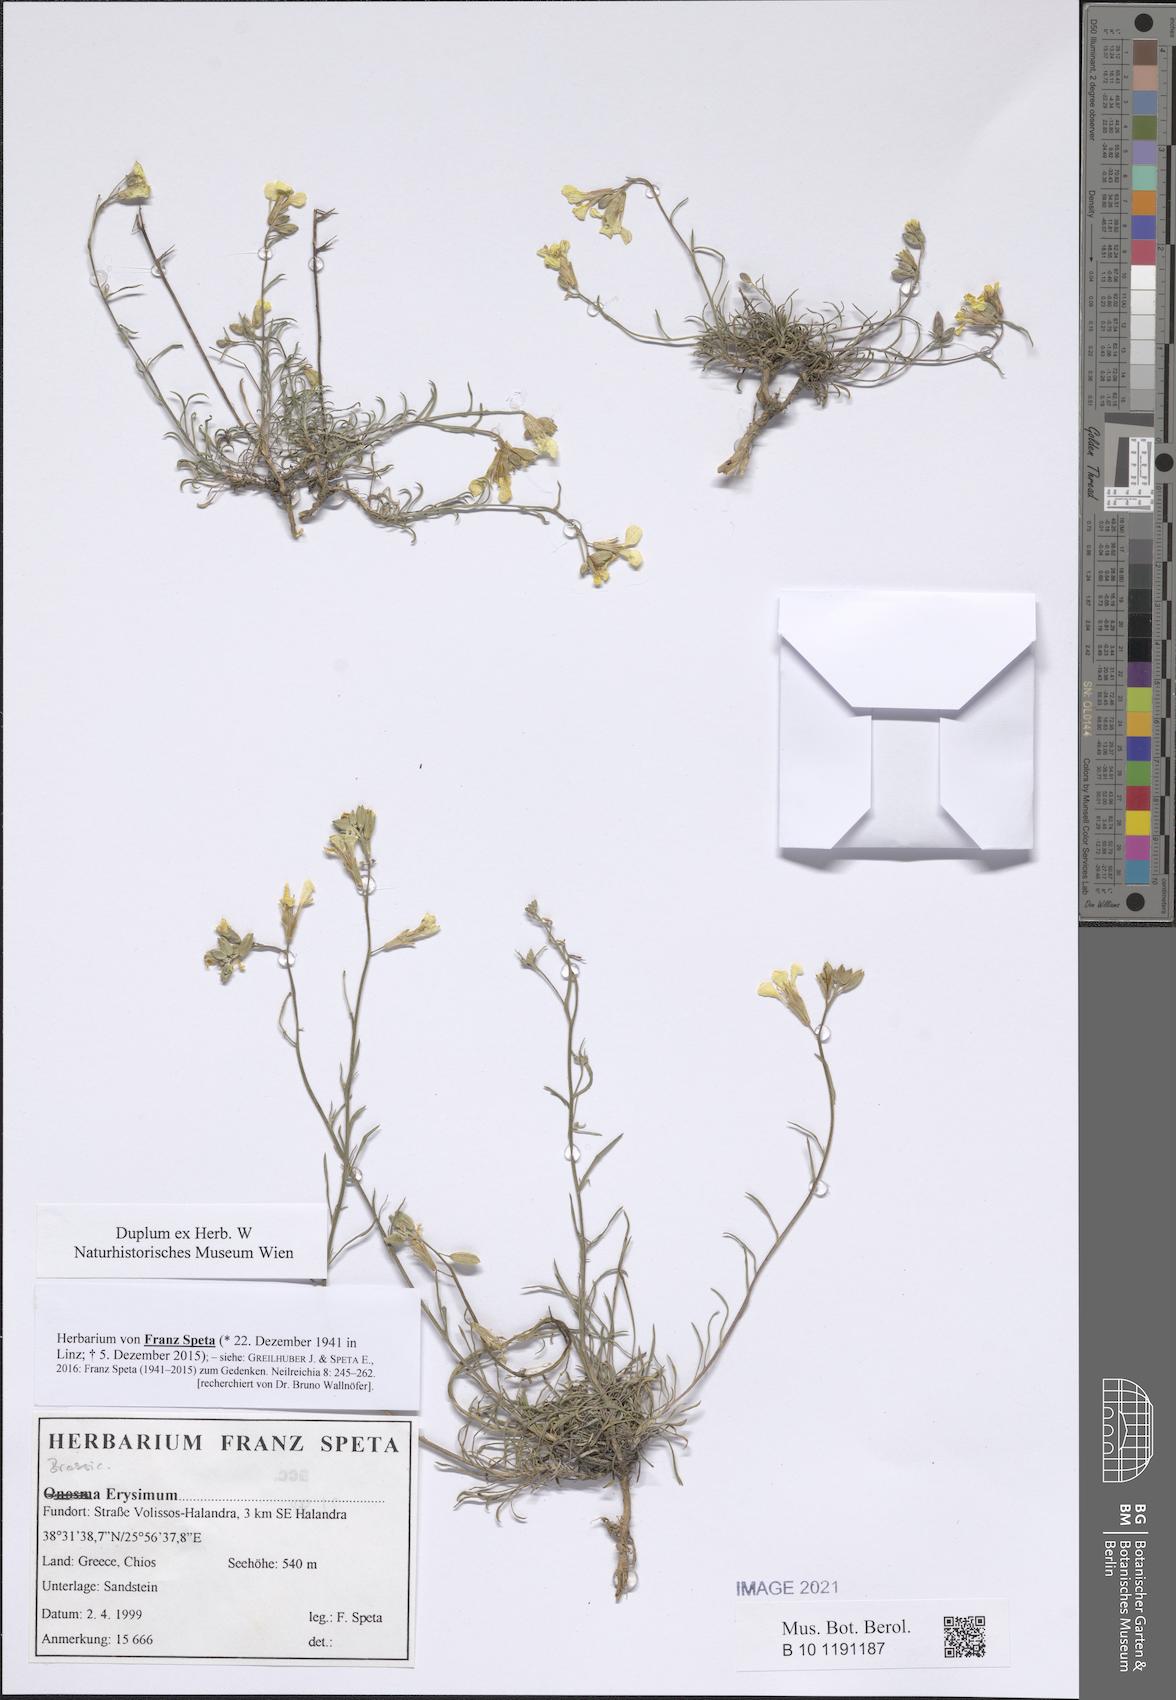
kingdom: Plantae
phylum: Tracheophyta
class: Magnoliopsida
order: Brassicales
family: Brassicaceae
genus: Erysimum
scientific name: Erysimum
